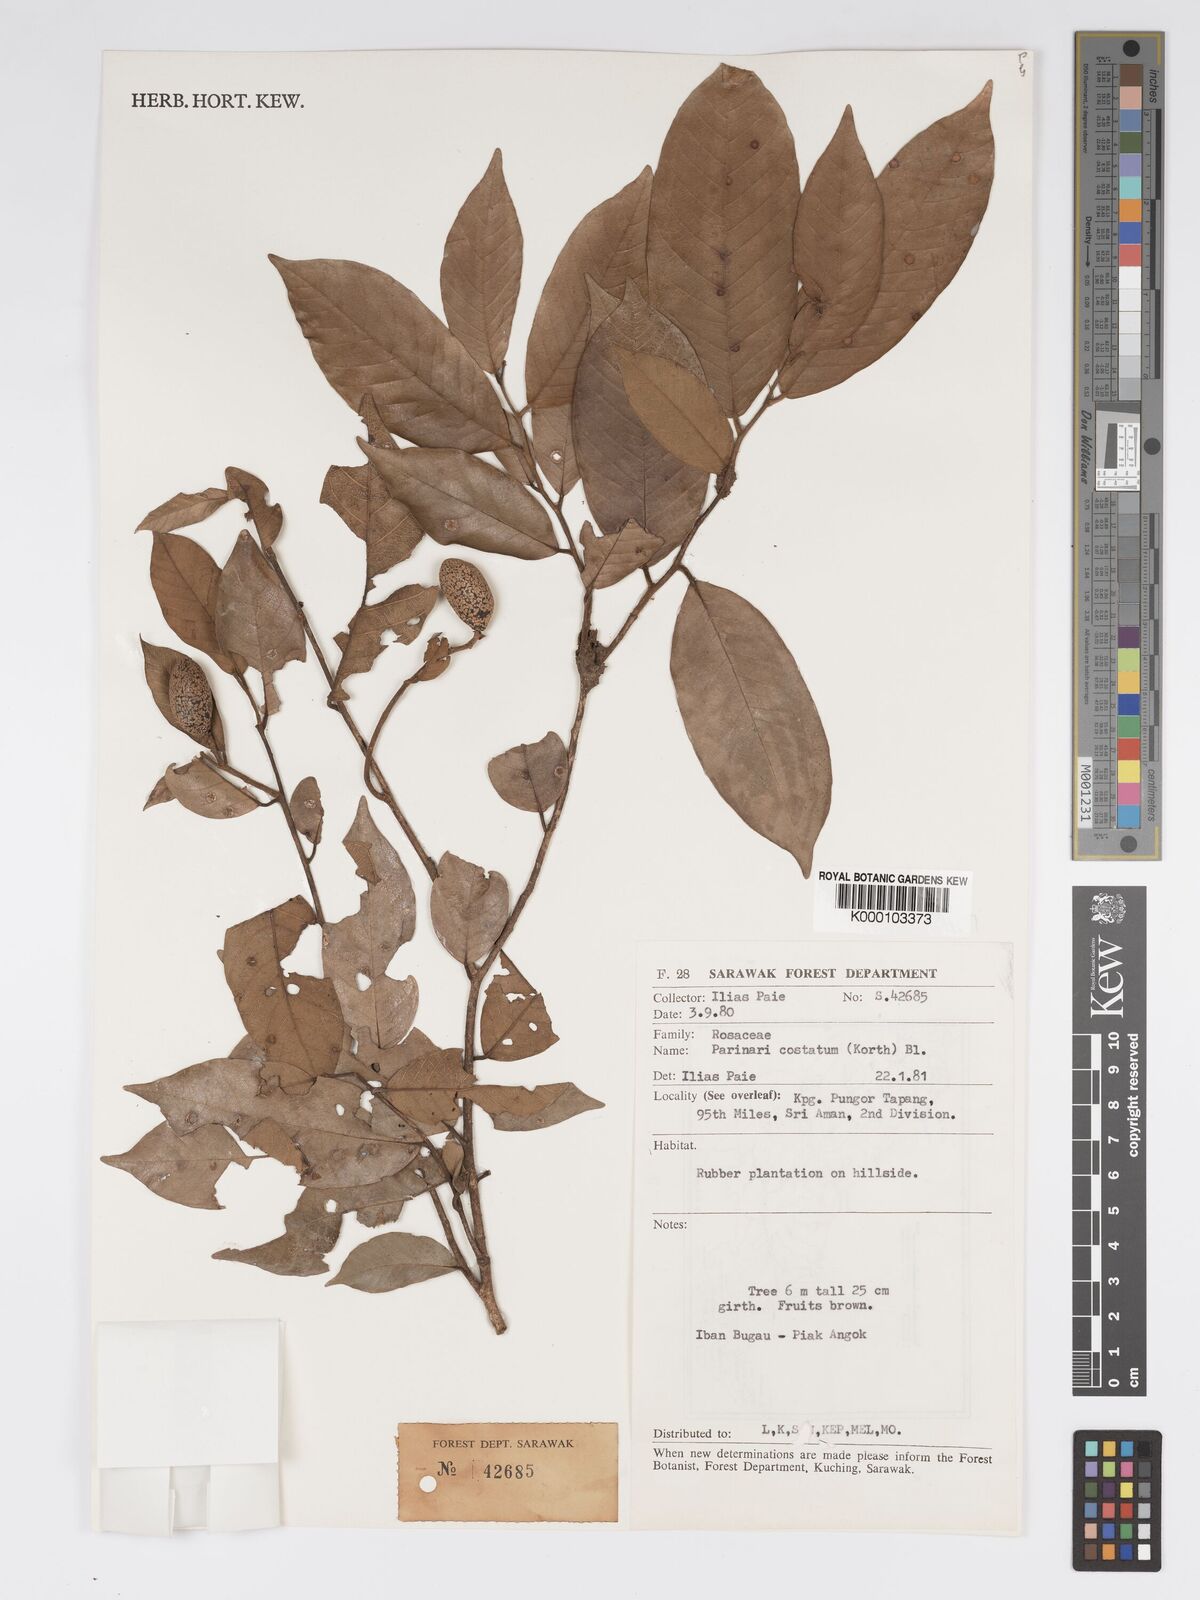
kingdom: Plantae
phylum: Tracheophyta
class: Magnoliopsida
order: Malpighiales
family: Chrysobalanaceae
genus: Parinari
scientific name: Parinari costata
